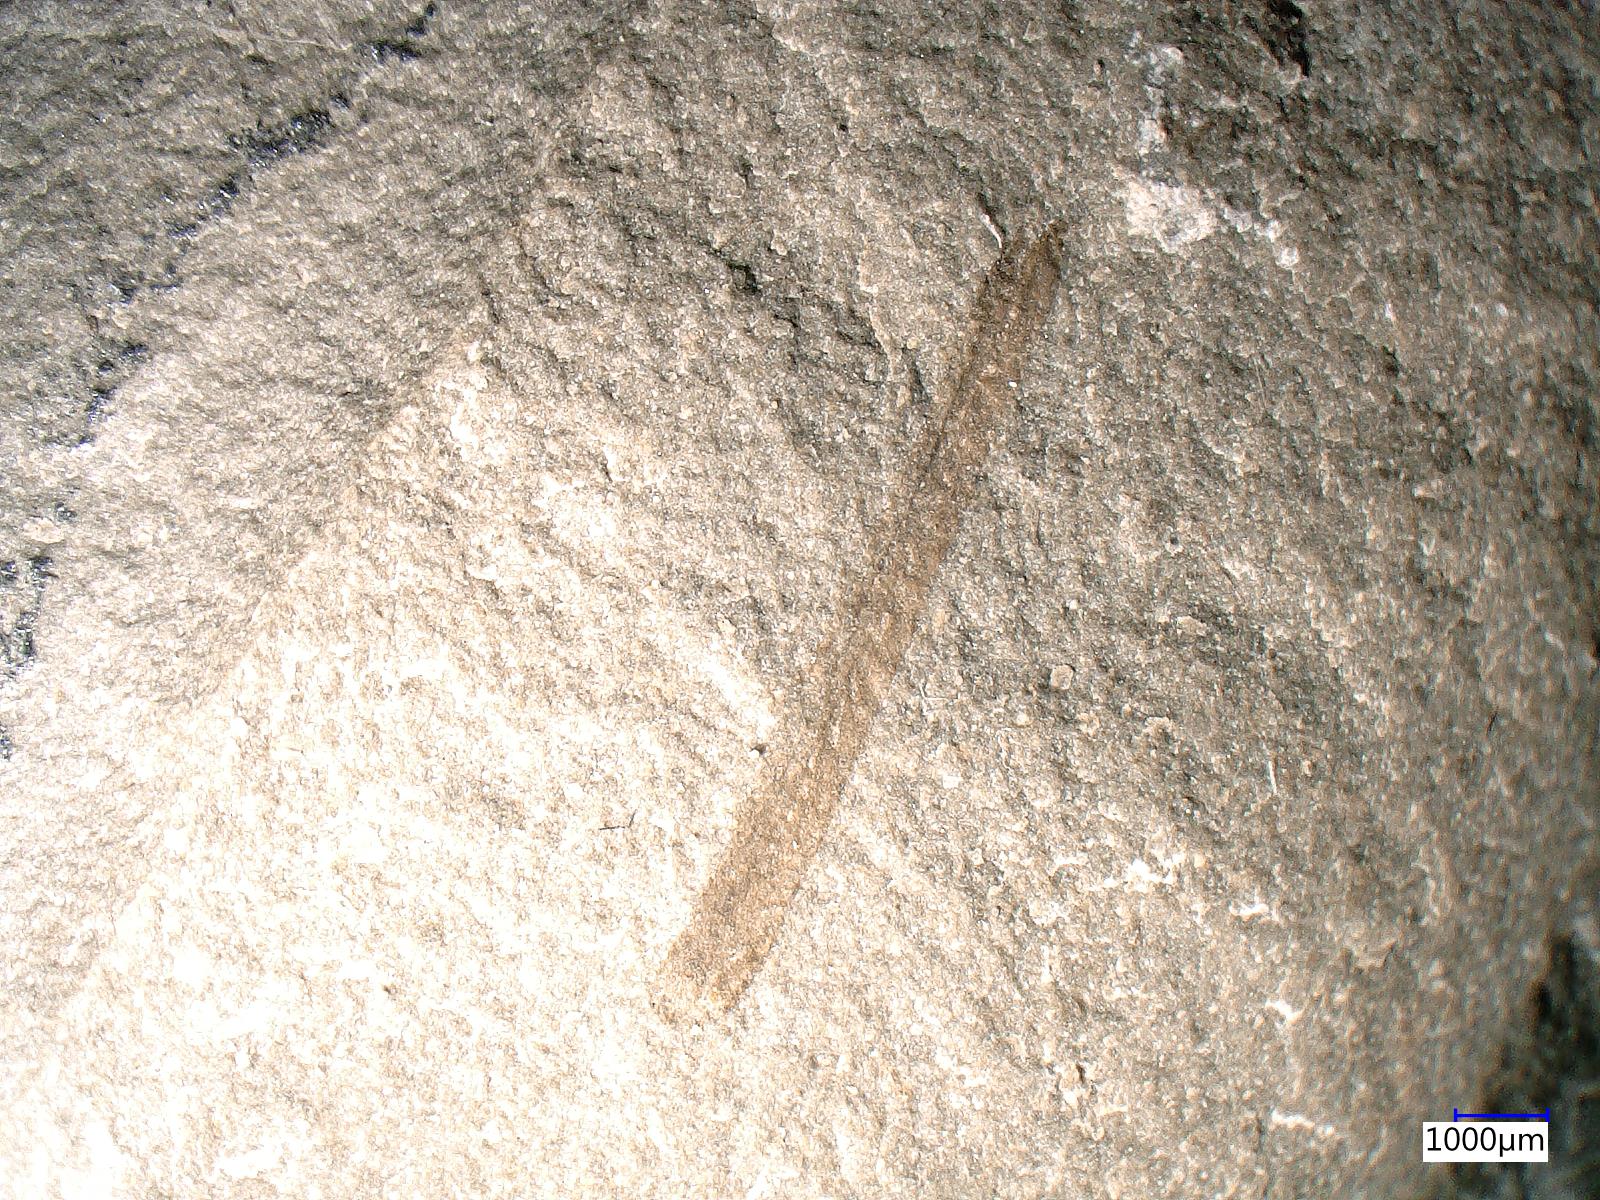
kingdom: Animalia
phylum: Arthropoda
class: Insecta
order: Hemiptera
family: Fulgoridiidae
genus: Fulgoridium
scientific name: Fulgoridium
